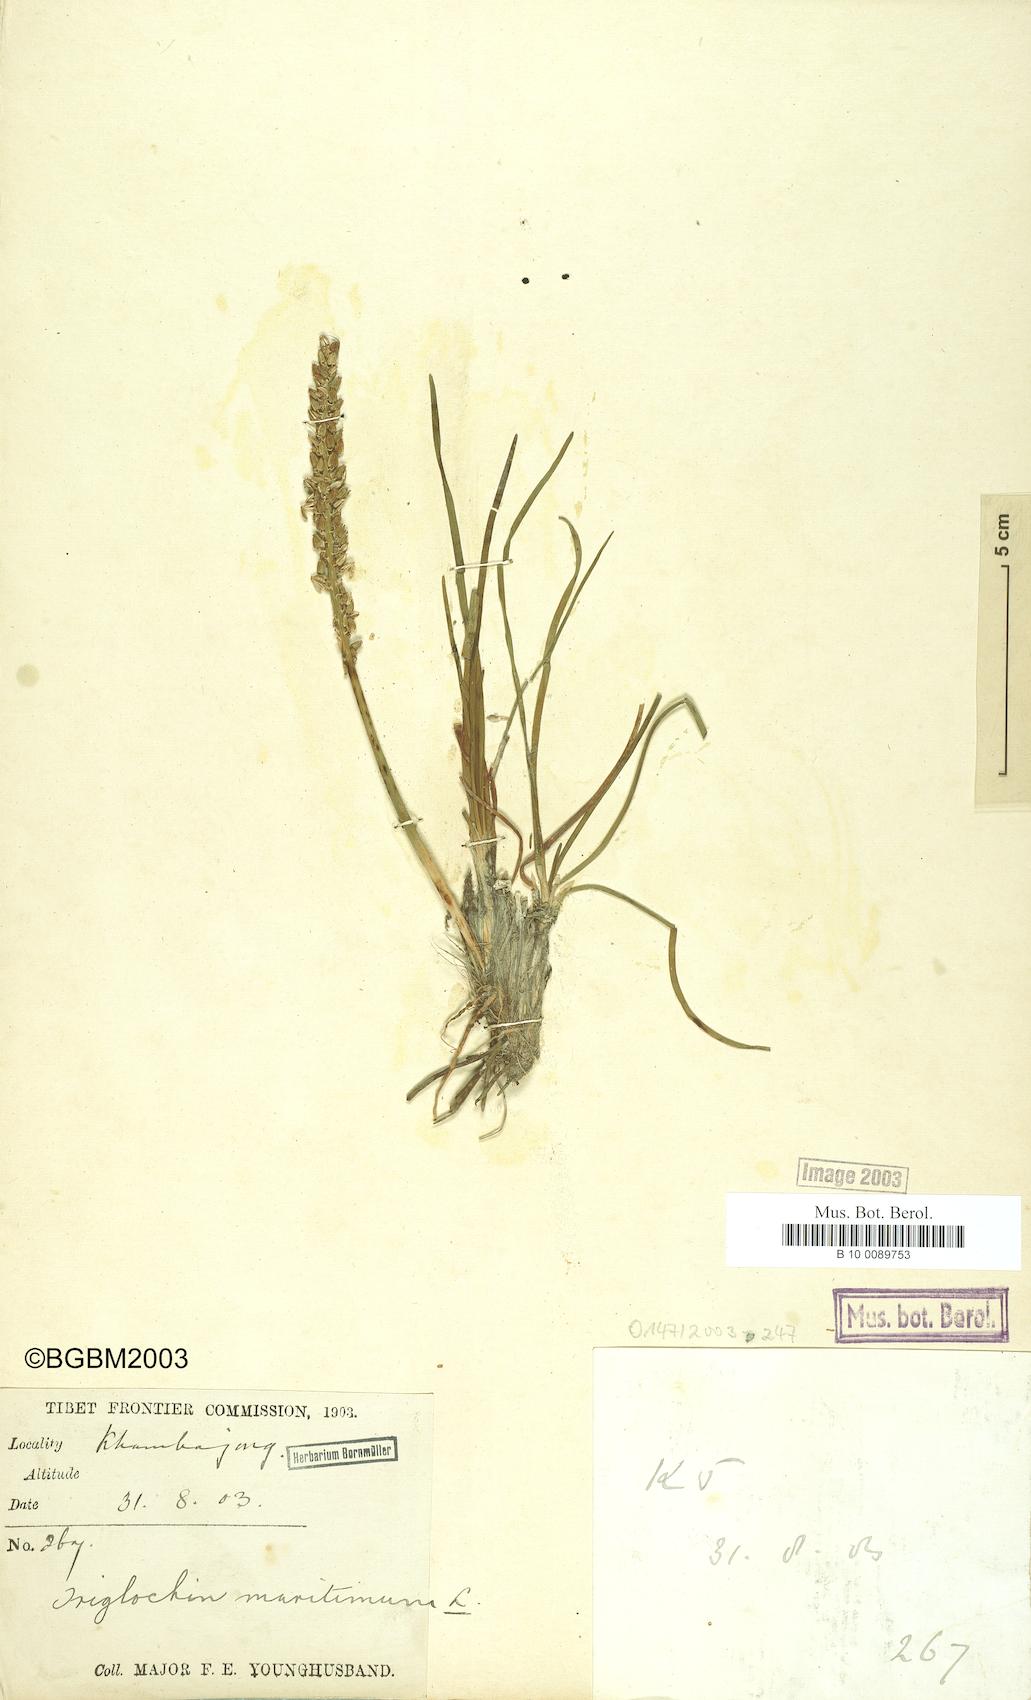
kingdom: Plantae
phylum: Tracheophyta
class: Liliopsida
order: Alismatales
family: Juncaginaceae
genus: Triglochin
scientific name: Triglochin maritima
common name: Sea arrowgrass
